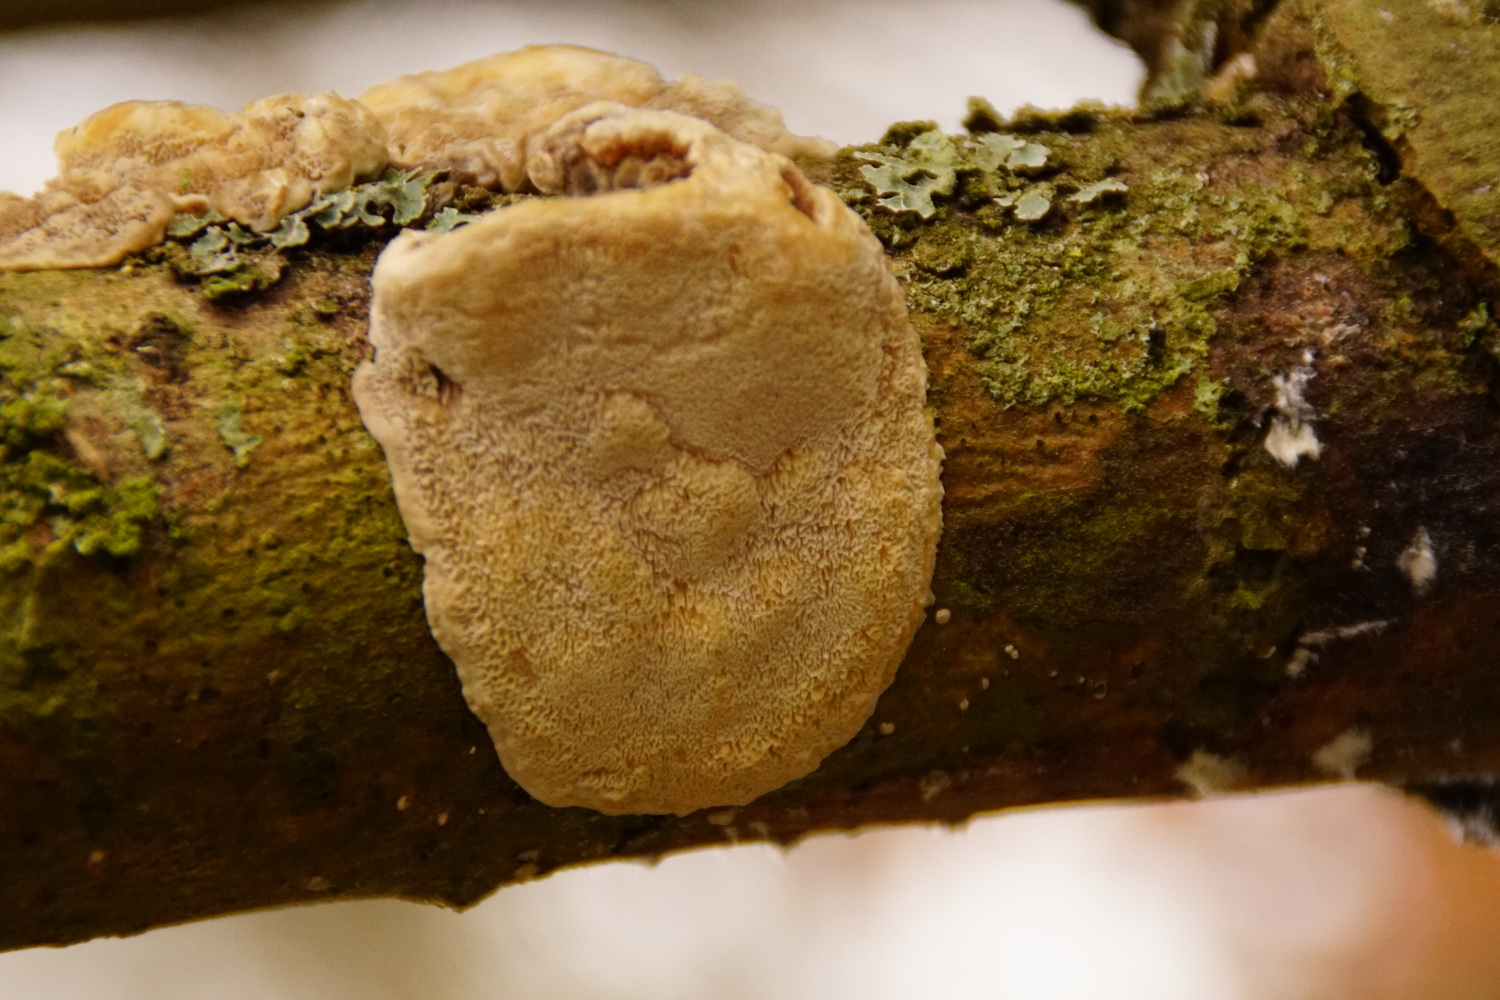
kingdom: Fungi
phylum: Basidiomycota
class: Agaricomycetes
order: Polyporales
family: Polyporaceae
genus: Trametes
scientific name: Trametes versicolor
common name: broget læderporesvamp
